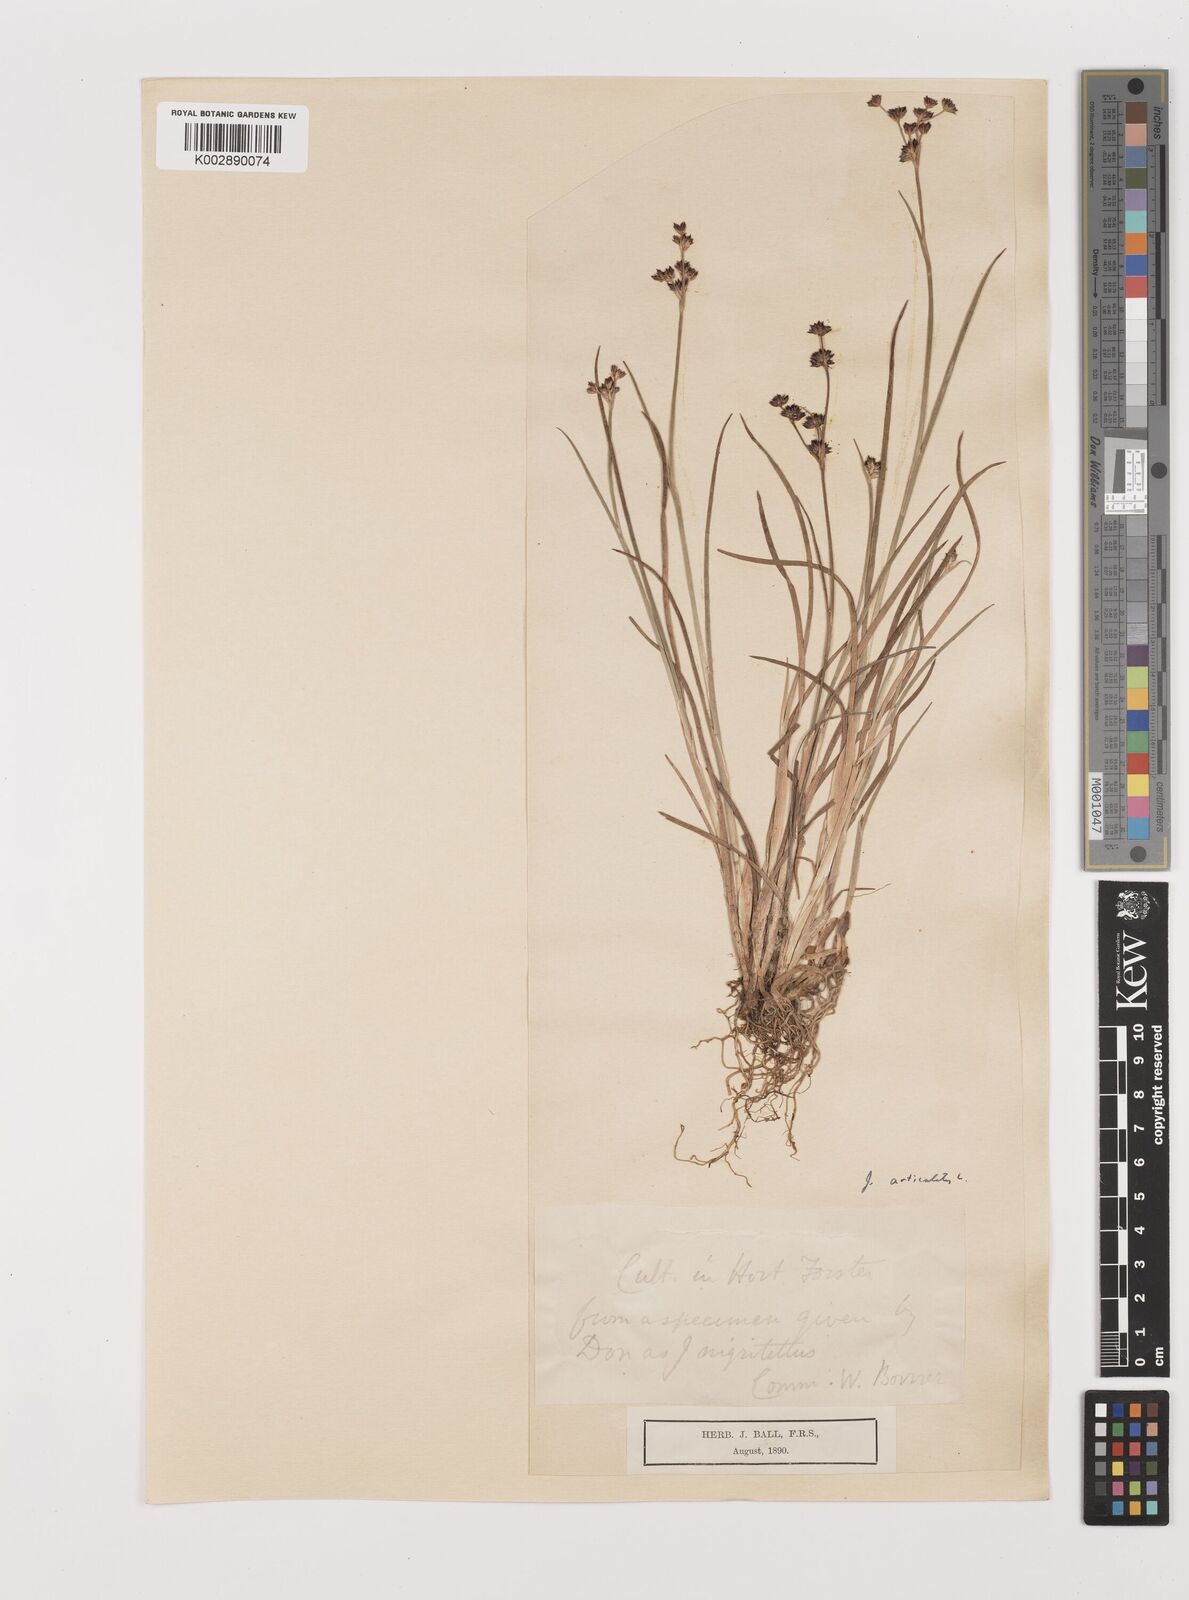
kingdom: Plantae
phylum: Tracheophyta
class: Liliopsida
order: Poales
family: Juncaceae
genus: Juncus
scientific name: Juncus articulatus
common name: Jointed rush
